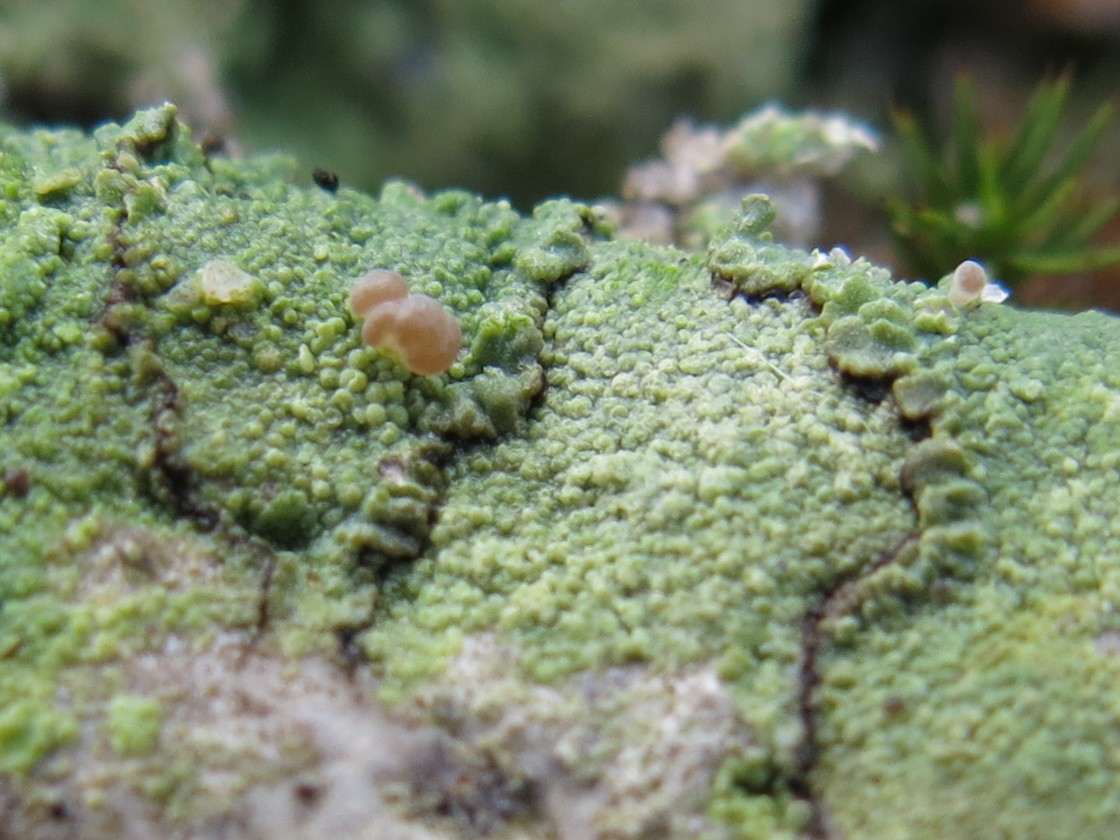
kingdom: Fungi
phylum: Ascomycota
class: Lecanoromycetes
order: Baeomycetales
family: Baeomycetaceae
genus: Baeomyces
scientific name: Baeomyces rufus
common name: rødbrun svampelav
